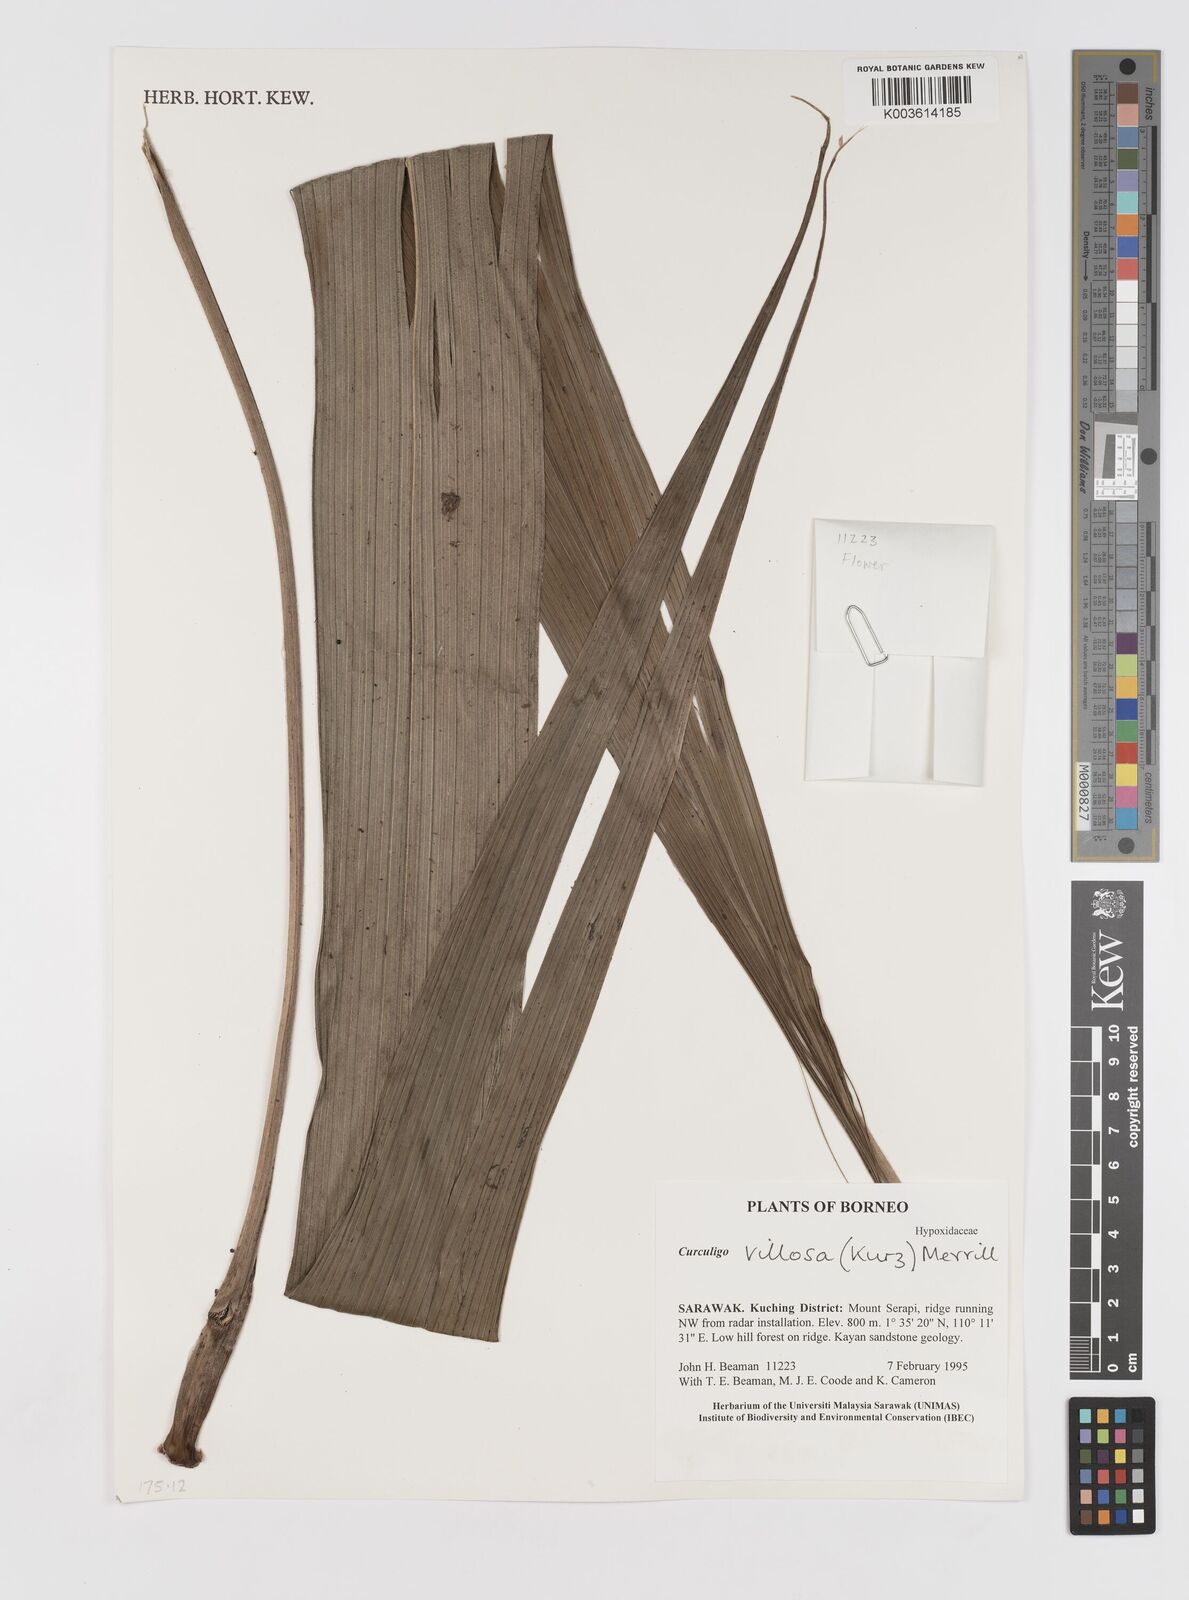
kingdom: Plantae
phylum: Tracheophyta
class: Liliopsida
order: Asparagales
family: Hypoxidaceae
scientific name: Hypoxidaceae
